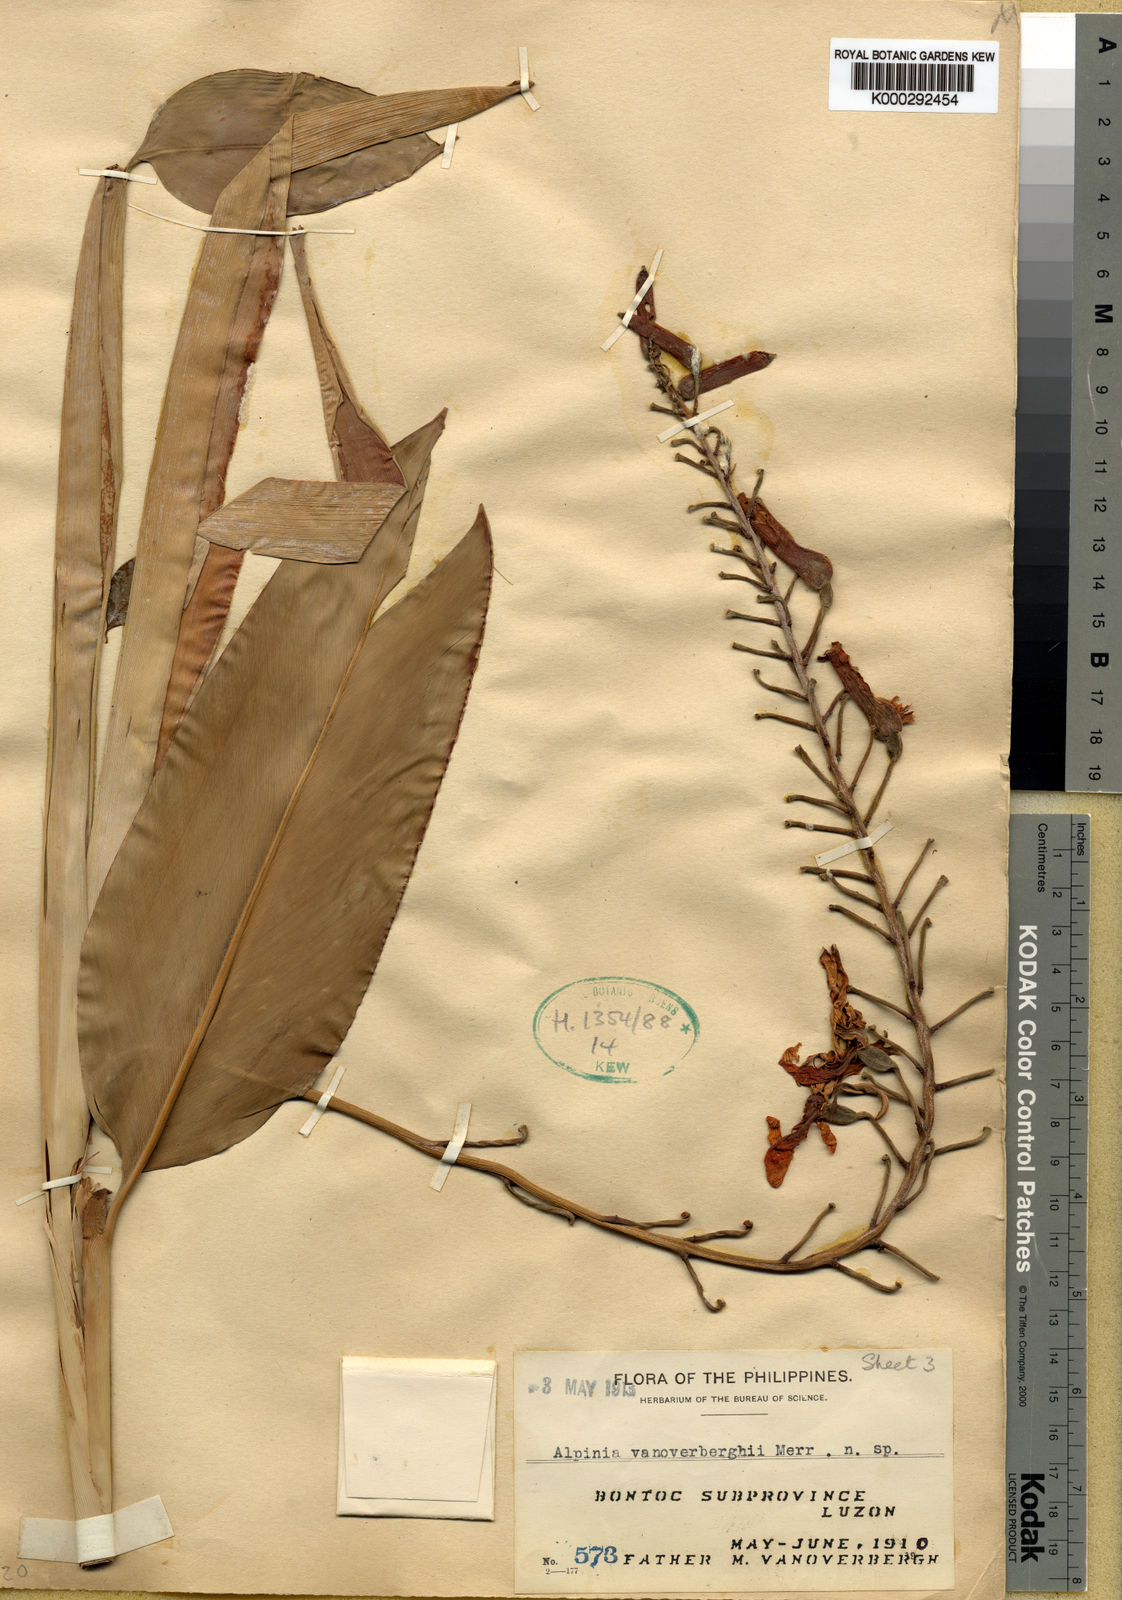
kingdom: Plantae
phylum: Tracheophyta
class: Liliopsida
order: Zingiberales
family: Zingiberaceae
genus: Vanoverberghia
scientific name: Vanoverberghia vanoverberghii
